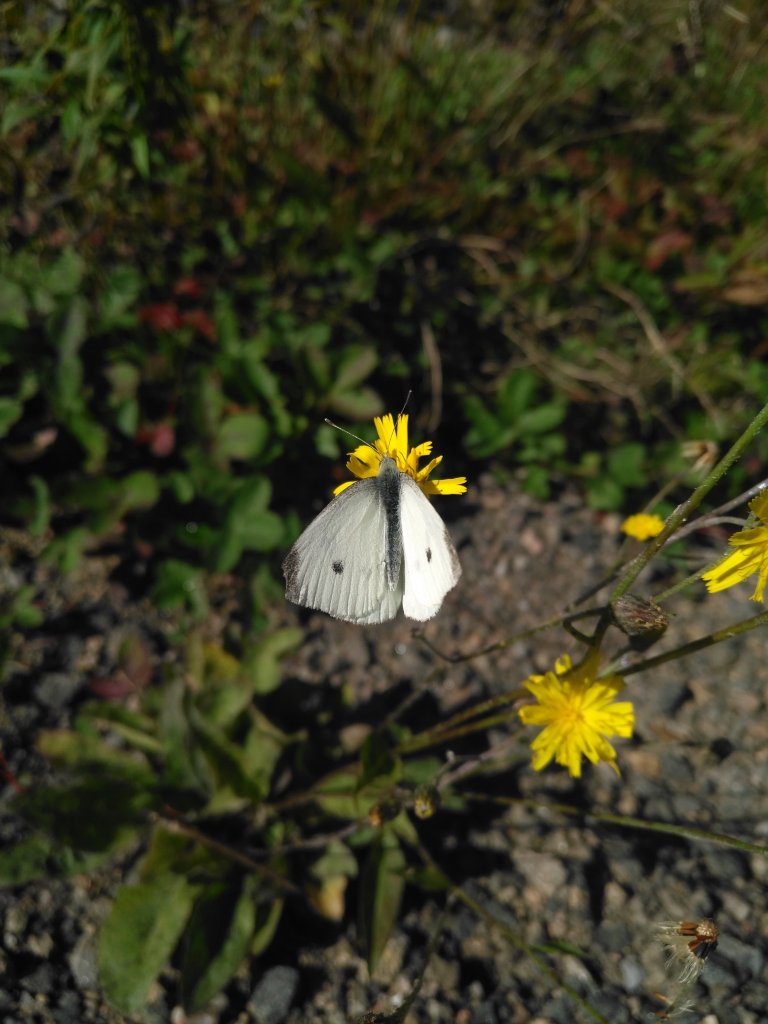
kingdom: Animalia
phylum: Arthropoda
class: Insecta
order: Lepidoptera
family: Pieridae
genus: Pieris
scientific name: Pieris rapae
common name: Cabbage White
